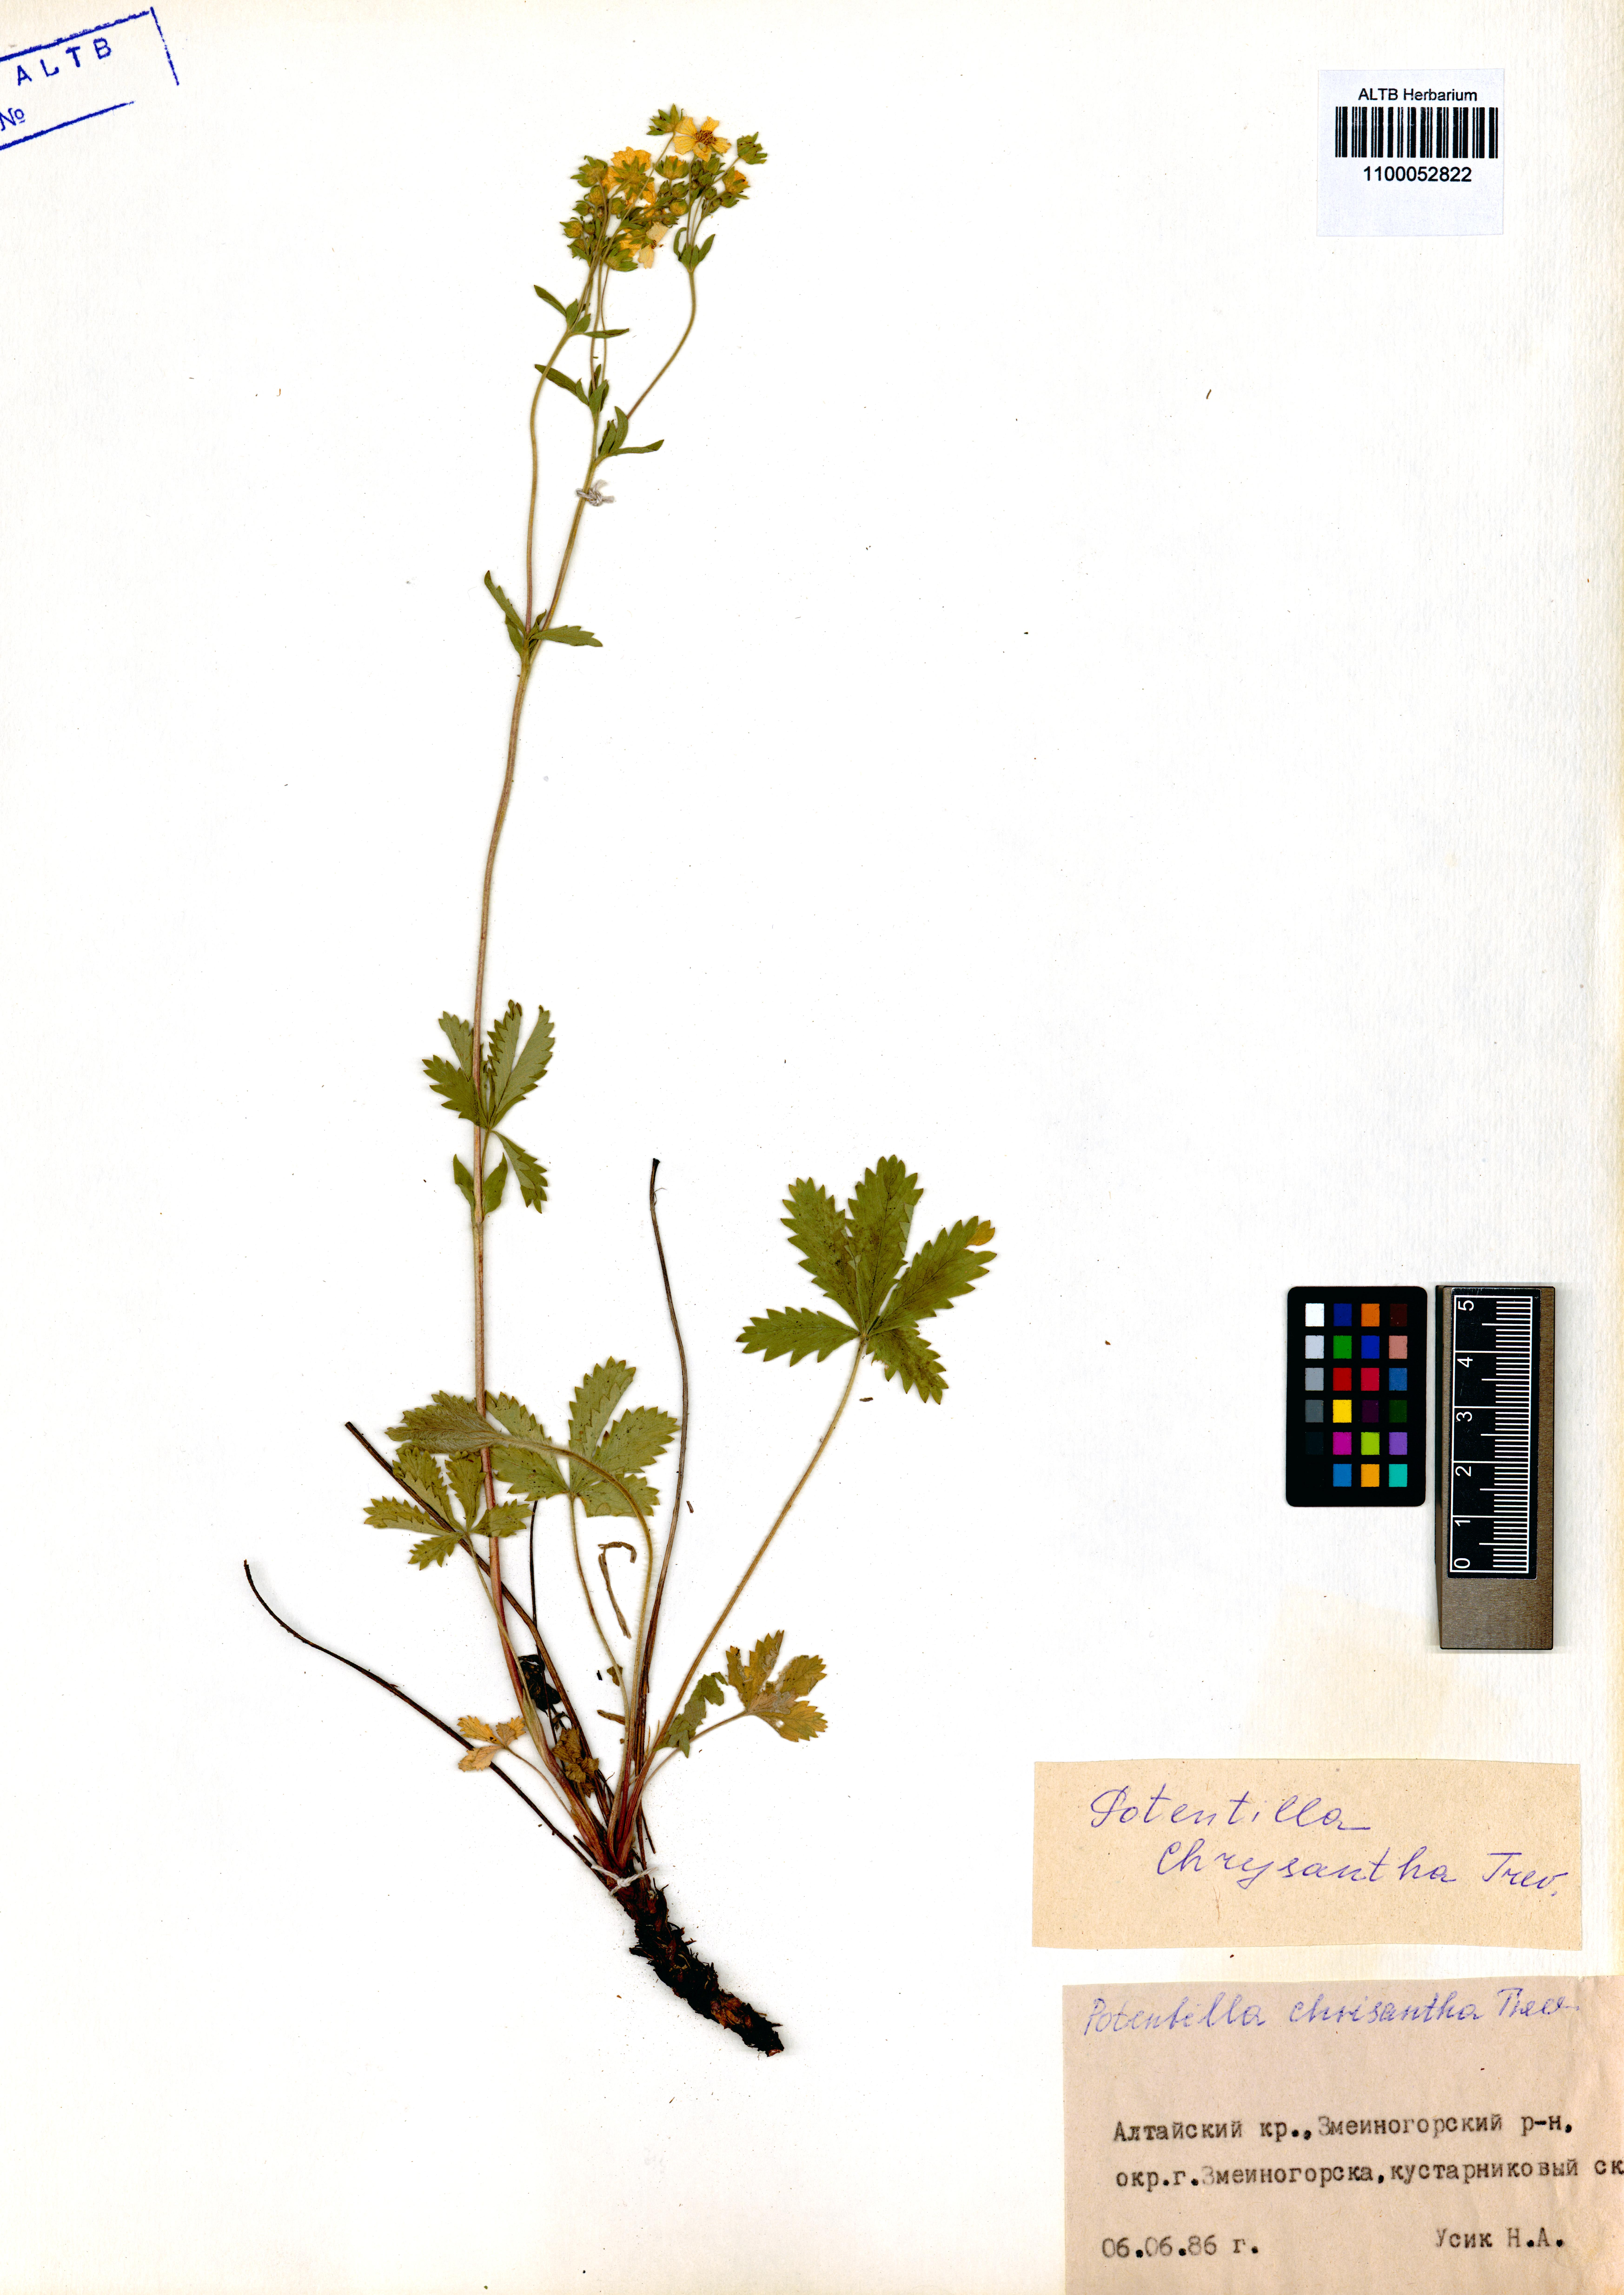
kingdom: Plantae
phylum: Tracheophyta
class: Magnoliopsida
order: Rosales
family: Rosaceae
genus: Potentilla
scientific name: Potentilla chrysantha
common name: Thuringian cinquefoil
